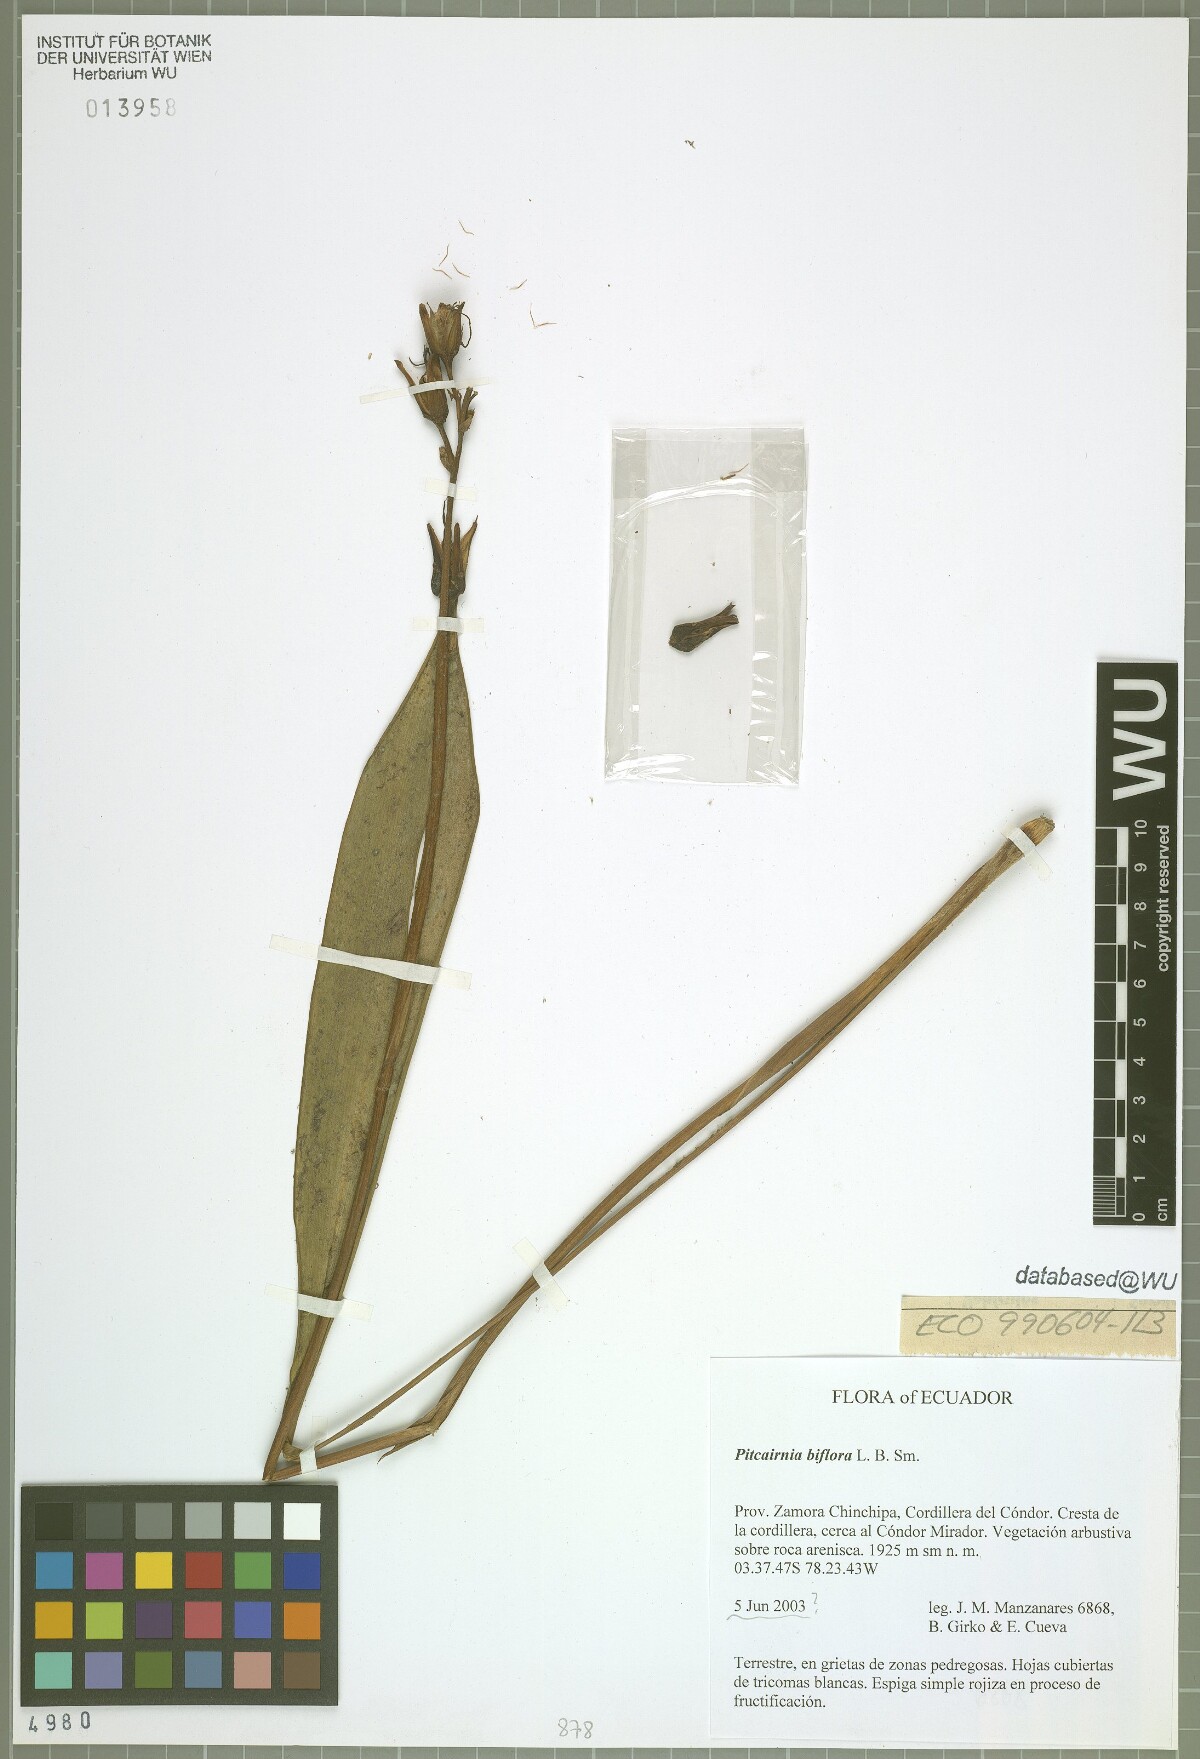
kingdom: Plantae
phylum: Tracheophyta
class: Liliopsida
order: Poales
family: Bromeliaceae
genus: Pitcairnia
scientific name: Pitcairnia biflora
